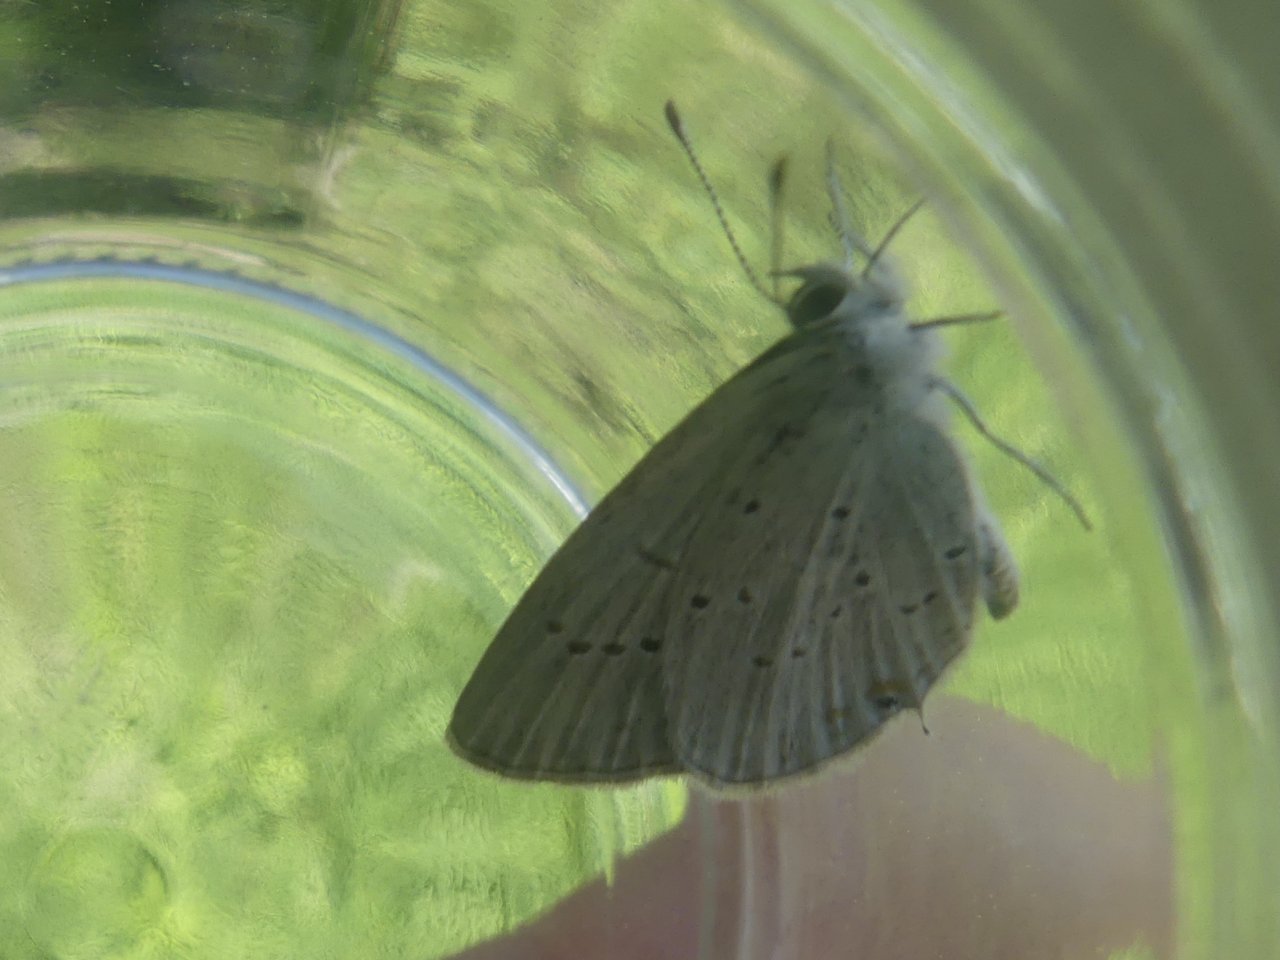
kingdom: Animalia
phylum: Arthropoda
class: Insecta
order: Lepidoptera
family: Lycaenidae
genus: Elkalyce
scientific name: Elkalyce amyntula
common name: Western Tailed-Blue
